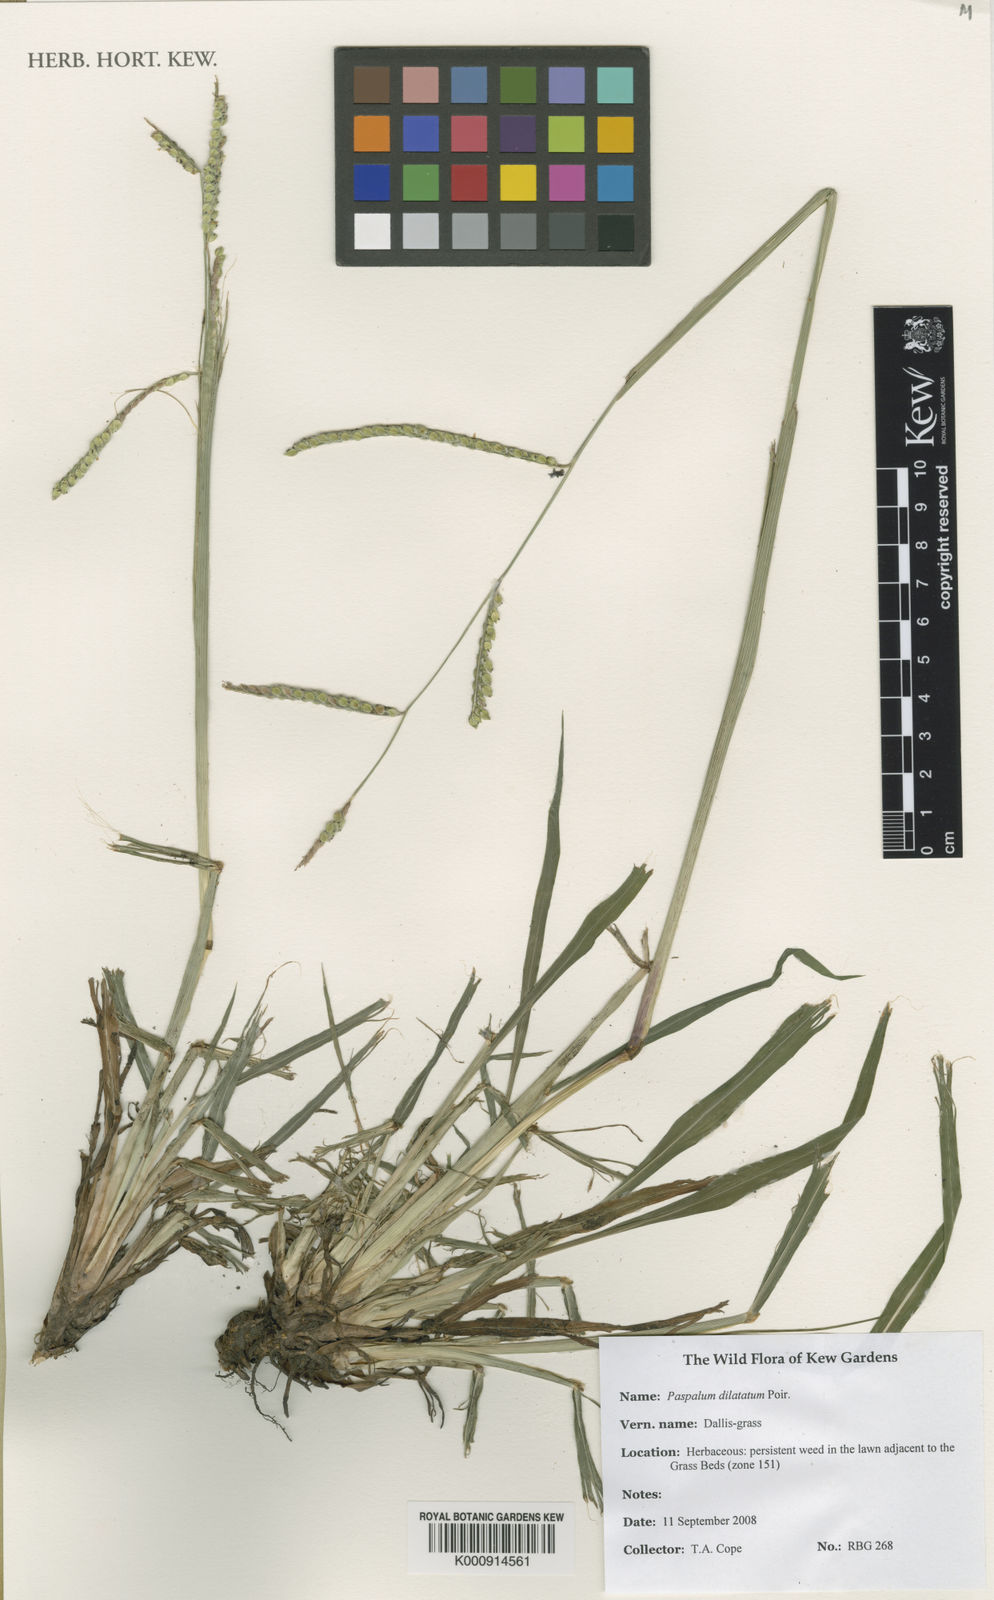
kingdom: Plantae
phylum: Tracheophyta
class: Liliopsida
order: Poales
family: Poaceae
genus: Paspalum
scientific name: Paspalum dilatatum
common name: Dallisgrass
